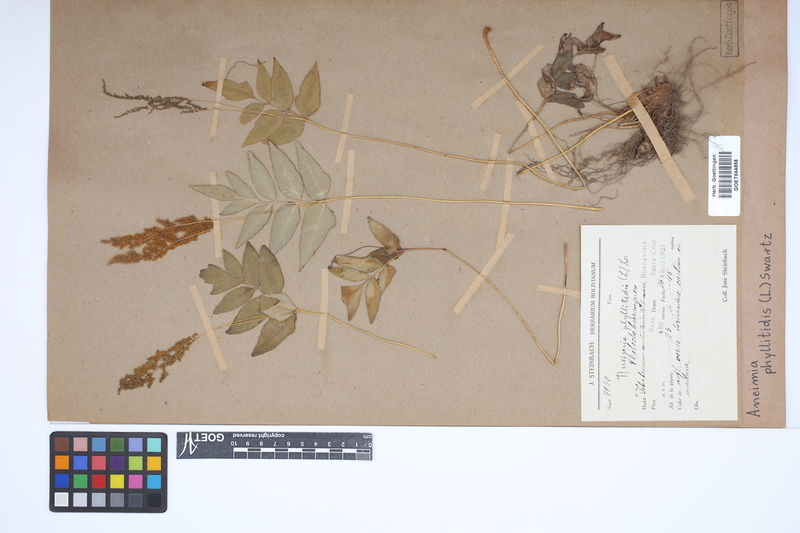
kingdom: Plantae
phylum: Tracheophyta
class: Polypodiopsida
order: Schizaeales
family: Anemiaceae
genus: Anemia
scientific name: Anemia phyllitidis
